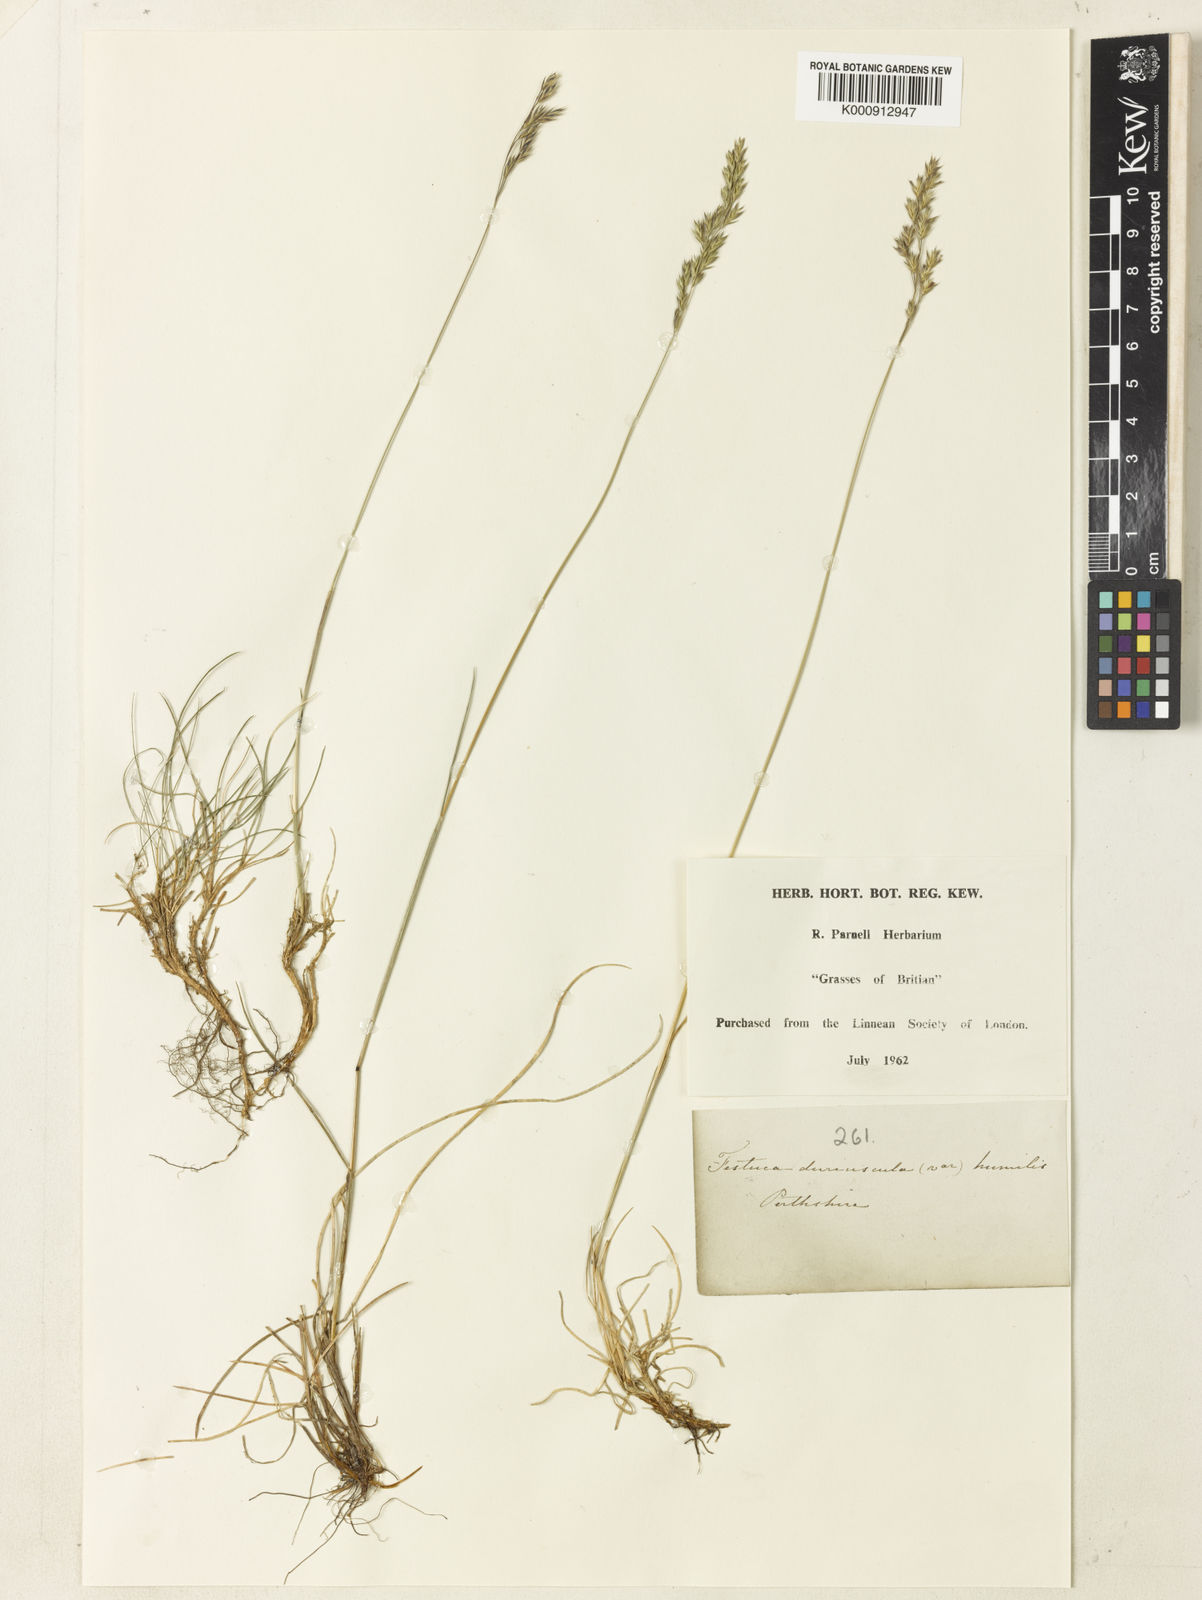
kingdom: Plantae
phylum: Tracheophyta
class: Liliopsida
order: Poales
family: Poaceae
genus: Festuca
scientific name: Festuca
